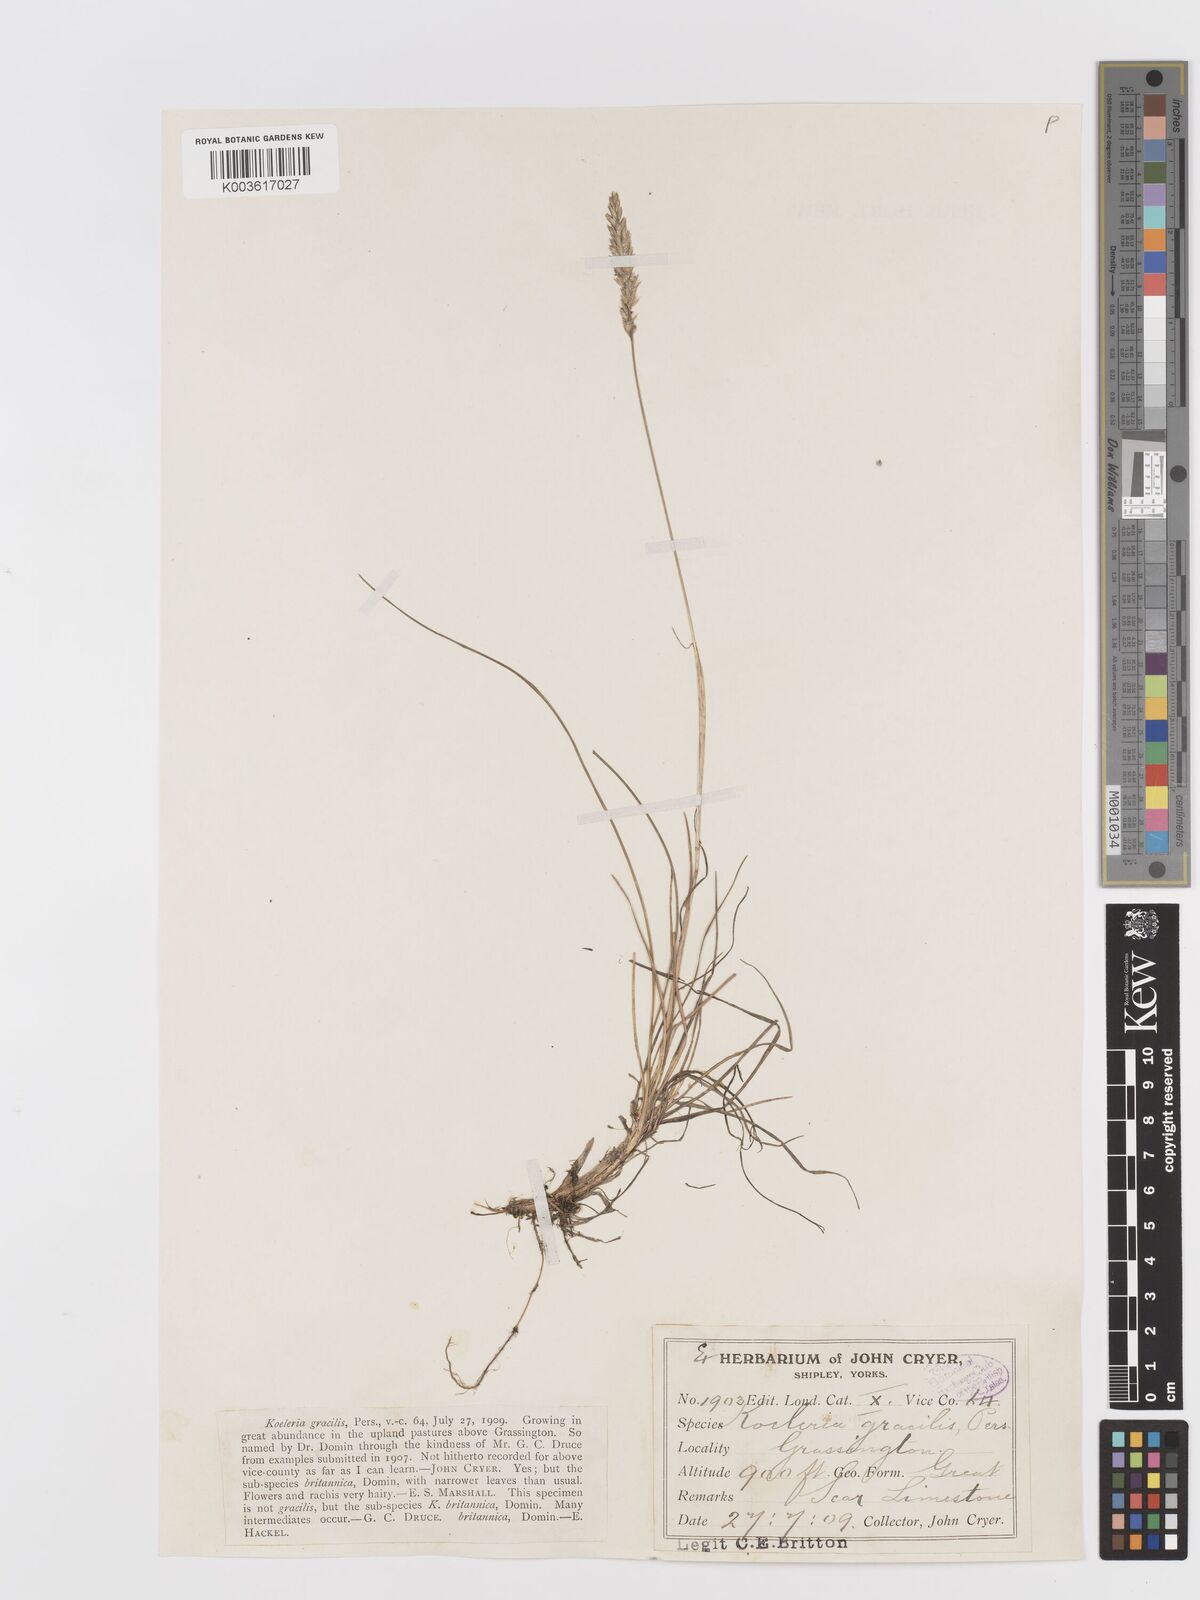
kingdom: Plantae
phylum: Tracheophyta
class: Liliopsida
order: Poales
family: Poaceae
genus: Koeleria
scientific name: Koeleria macrantha
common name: Crested hair-grass
